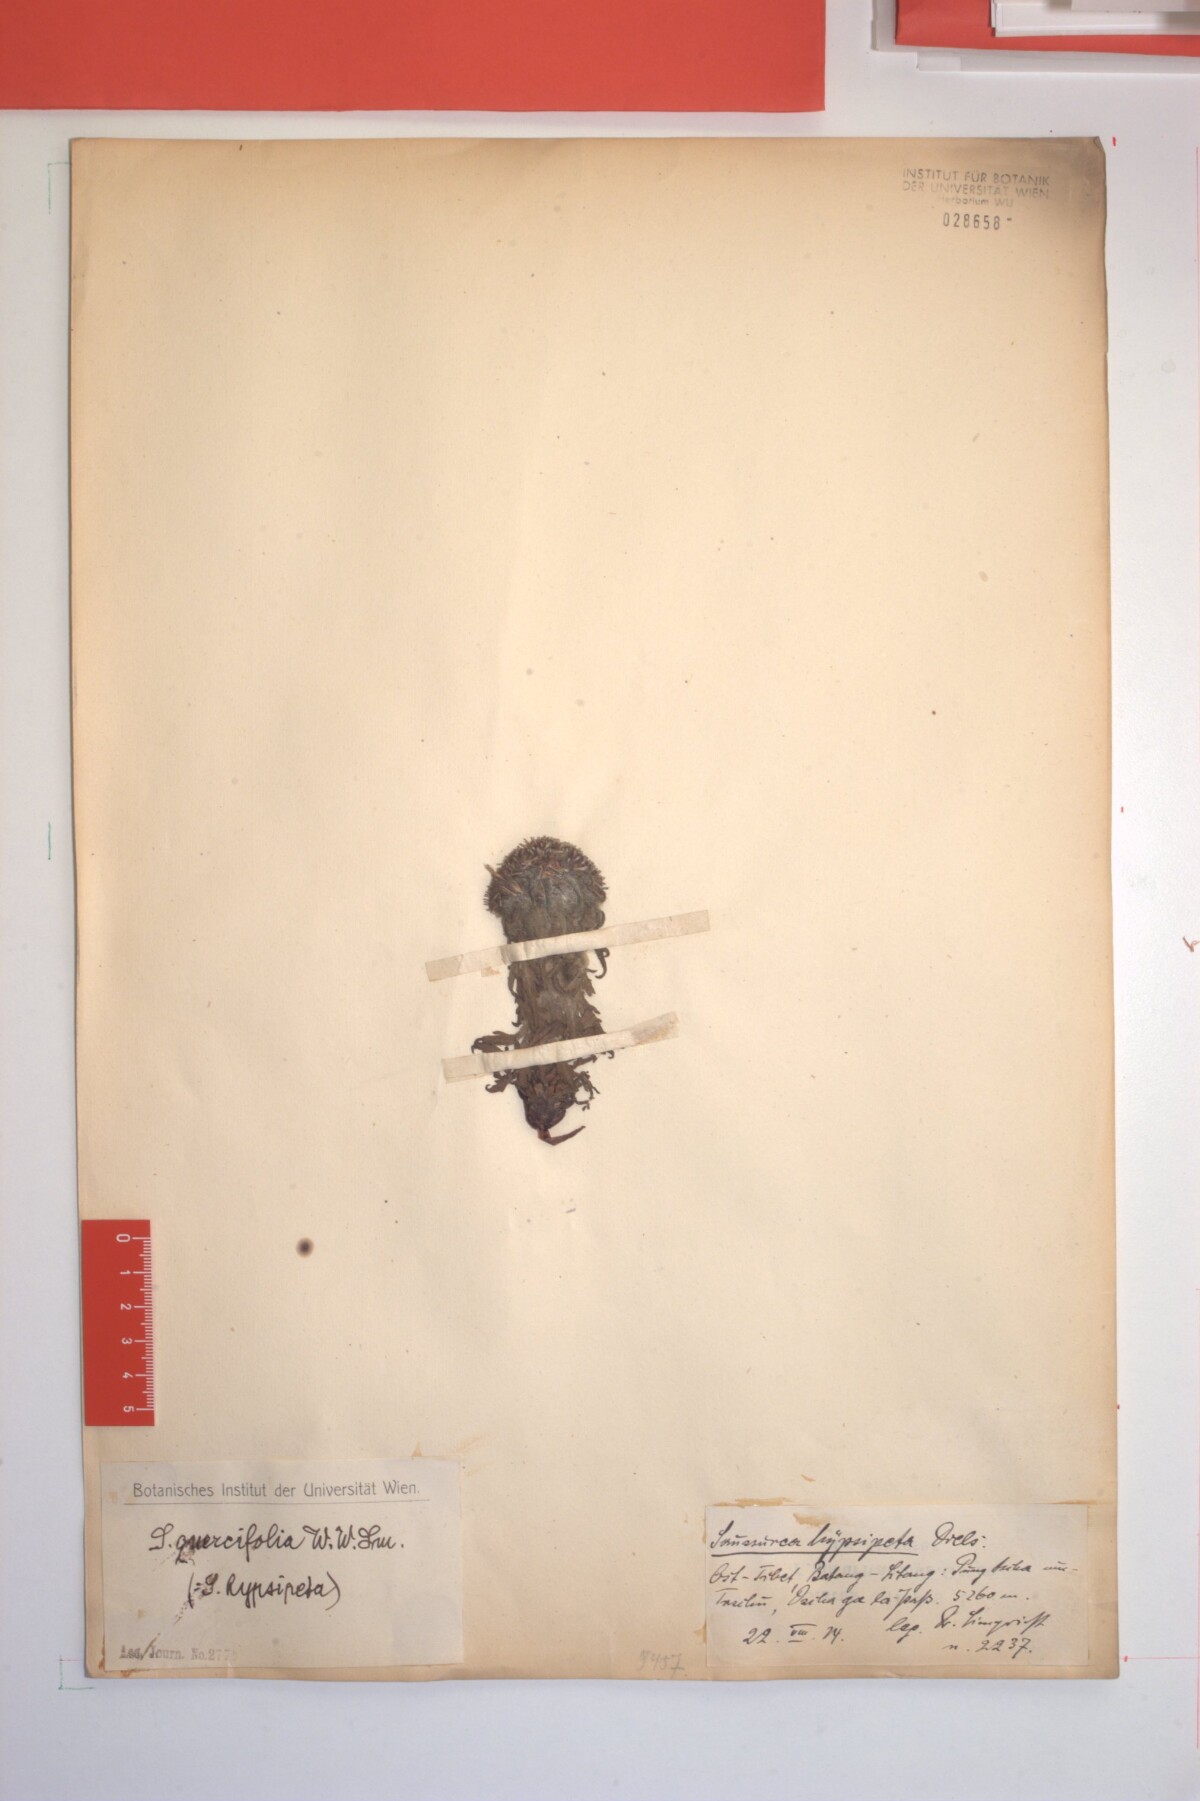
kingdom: Plantae
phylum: Tracheophyta
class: Magnoliopsida
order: Asterales
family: Asteraceae
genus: Saussurea
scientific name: Saussurea quercifolia
